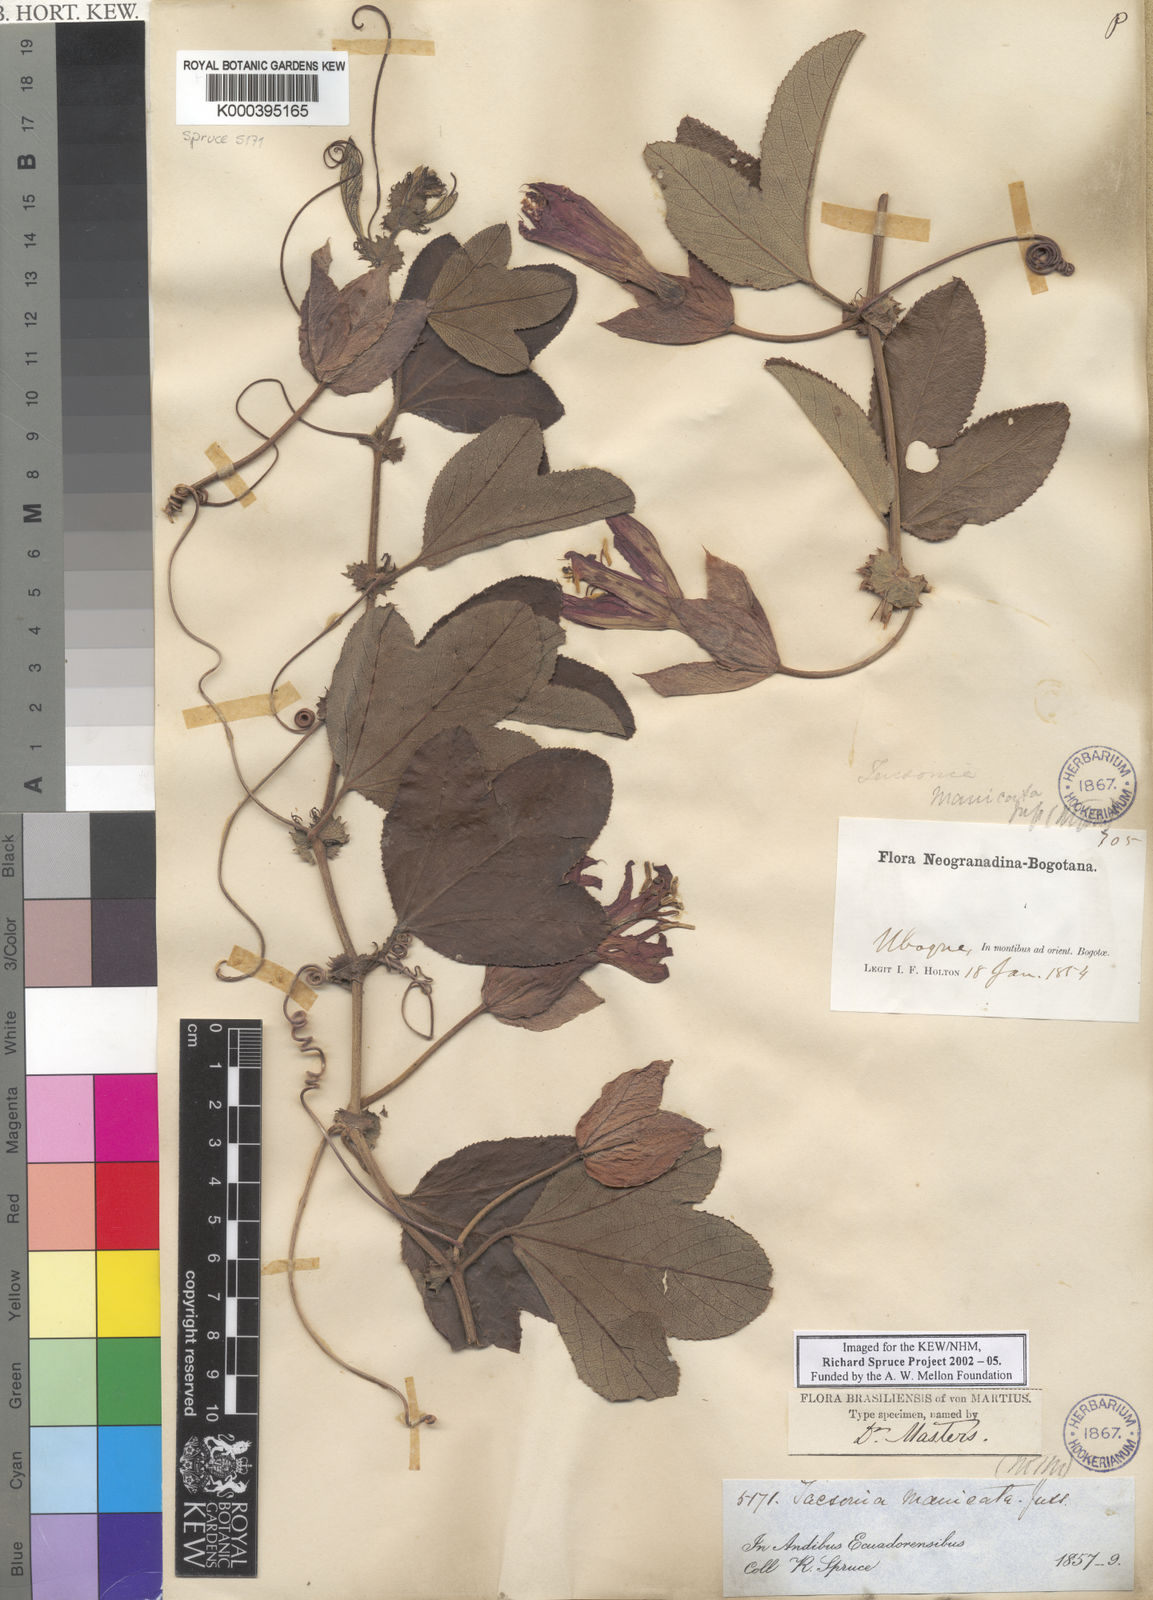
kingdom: Plantae
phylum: Tracheophyta
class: Magnoliopsida
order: Malpighiales
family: Passifloraceae
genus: Passiflora
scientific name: Passiflora manicata
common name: Red passionflower
